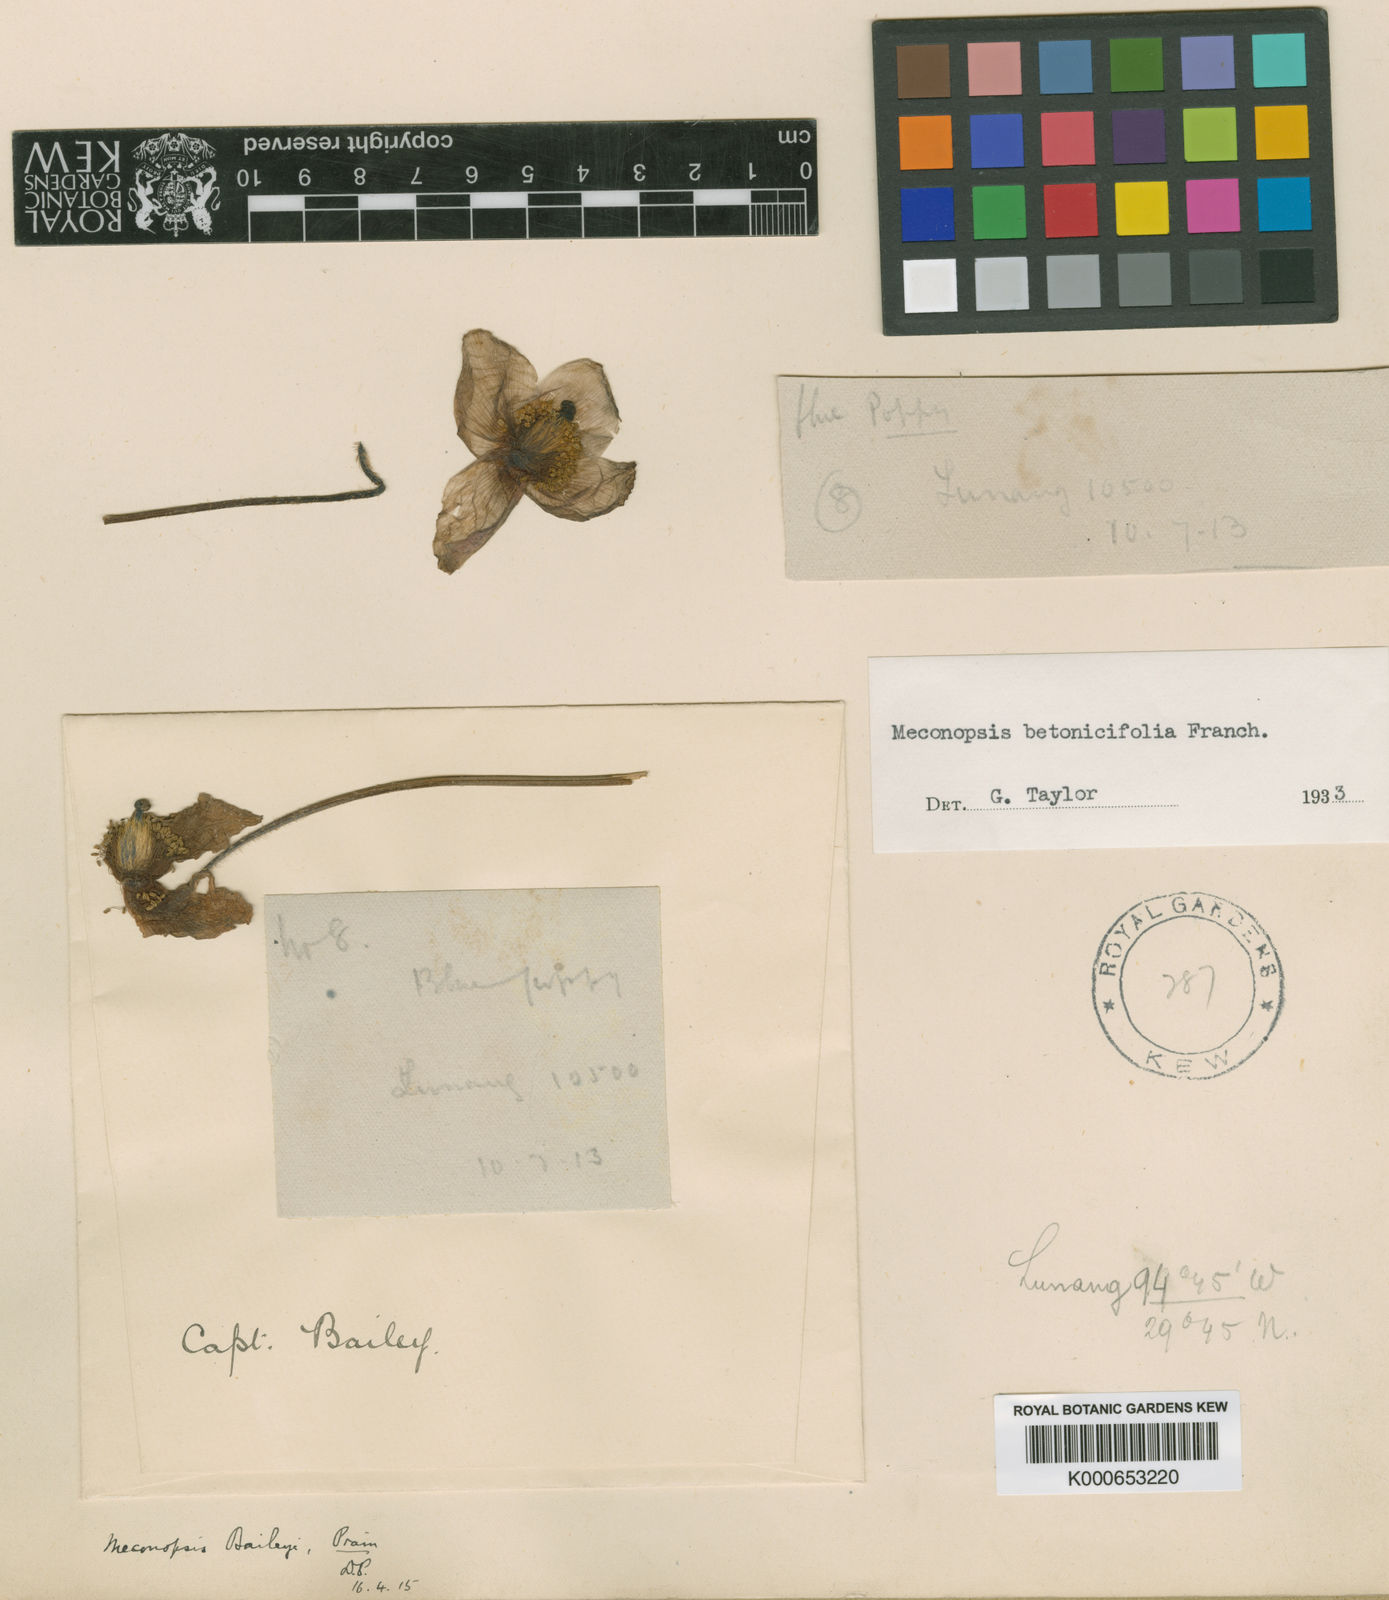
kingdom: Plantae
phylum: Tracheophyta
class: Magnoliopsida
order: Ranunculales
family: Papaveraceae
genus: Cathcartia
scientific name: Cathcartia betonicifolia
